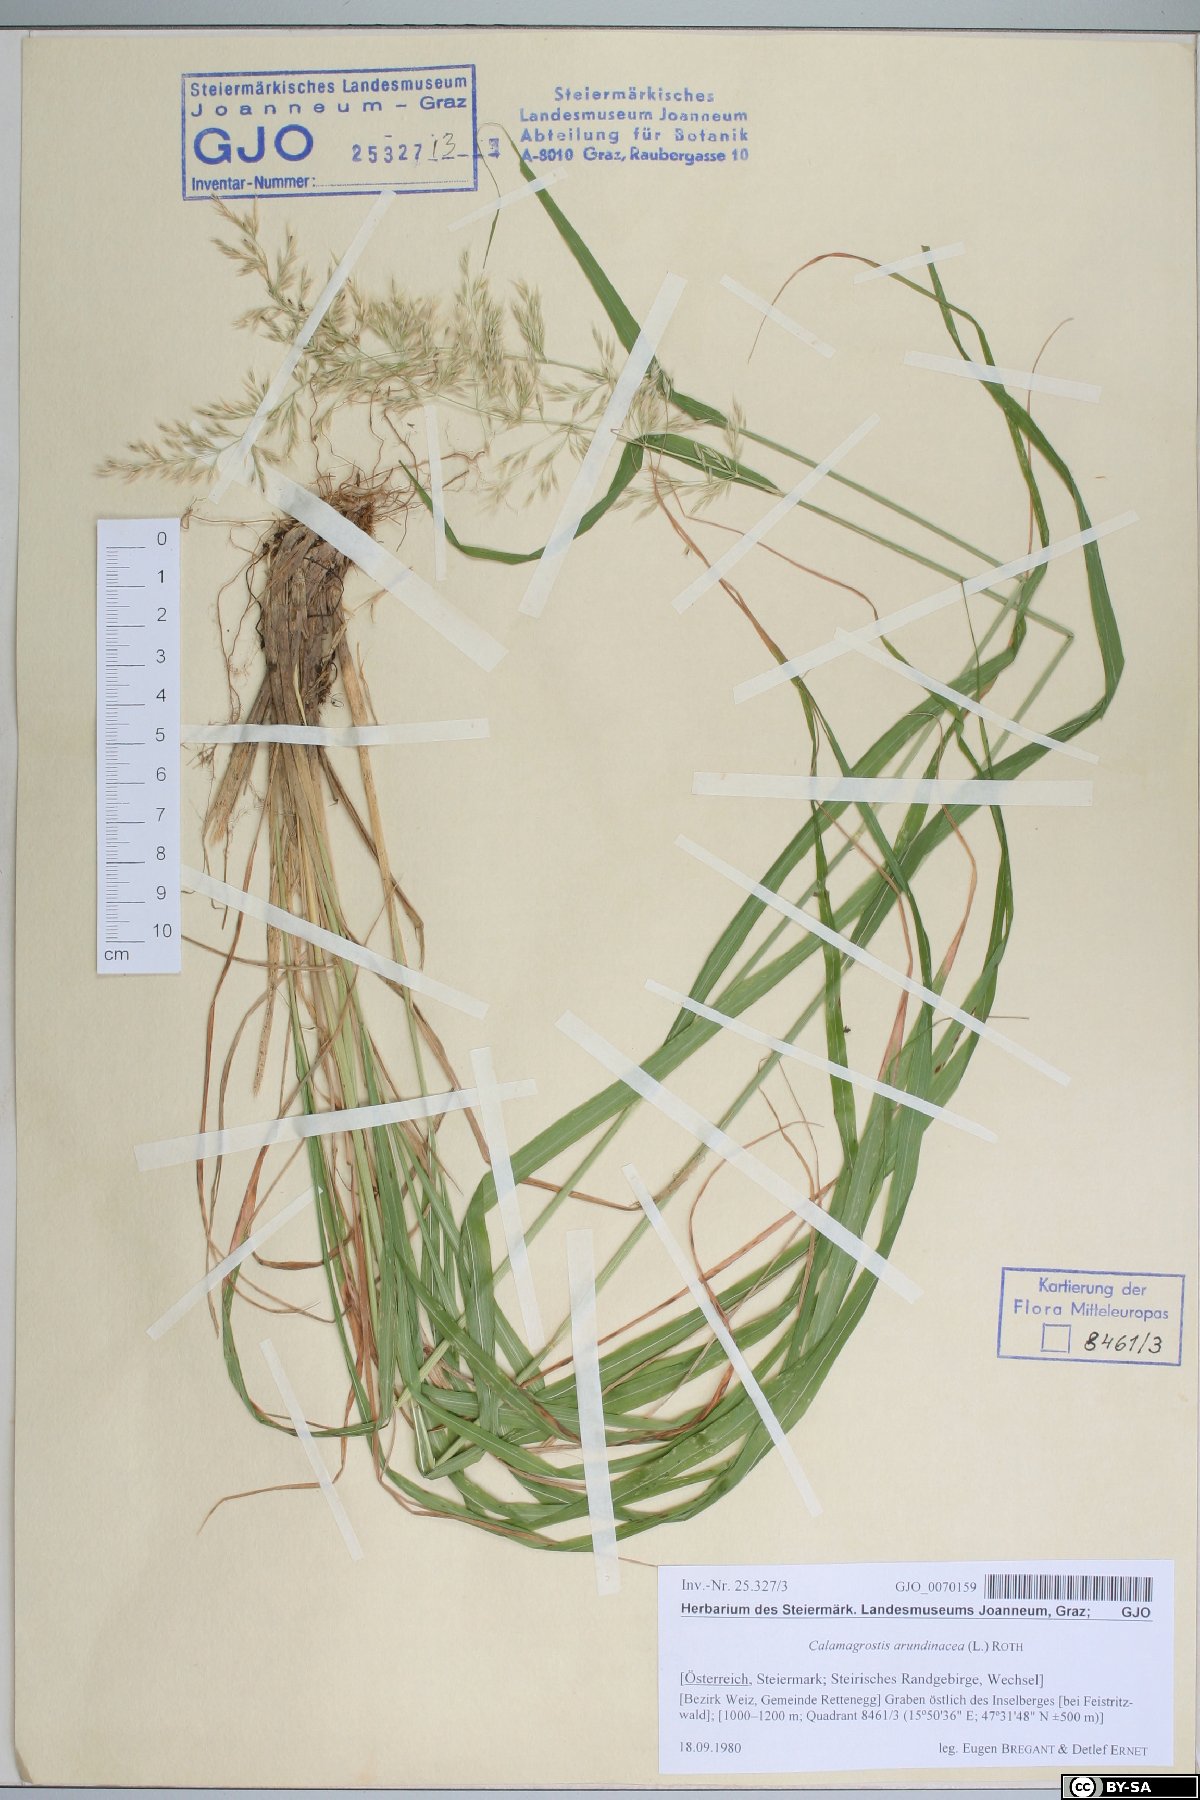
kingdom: Plantae
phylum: Tracheophyta
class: Liliopsida
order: Poales
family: Poaceae
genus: Calamagrostis
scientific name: Calamagrostis arundinacea
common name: Metskastik
